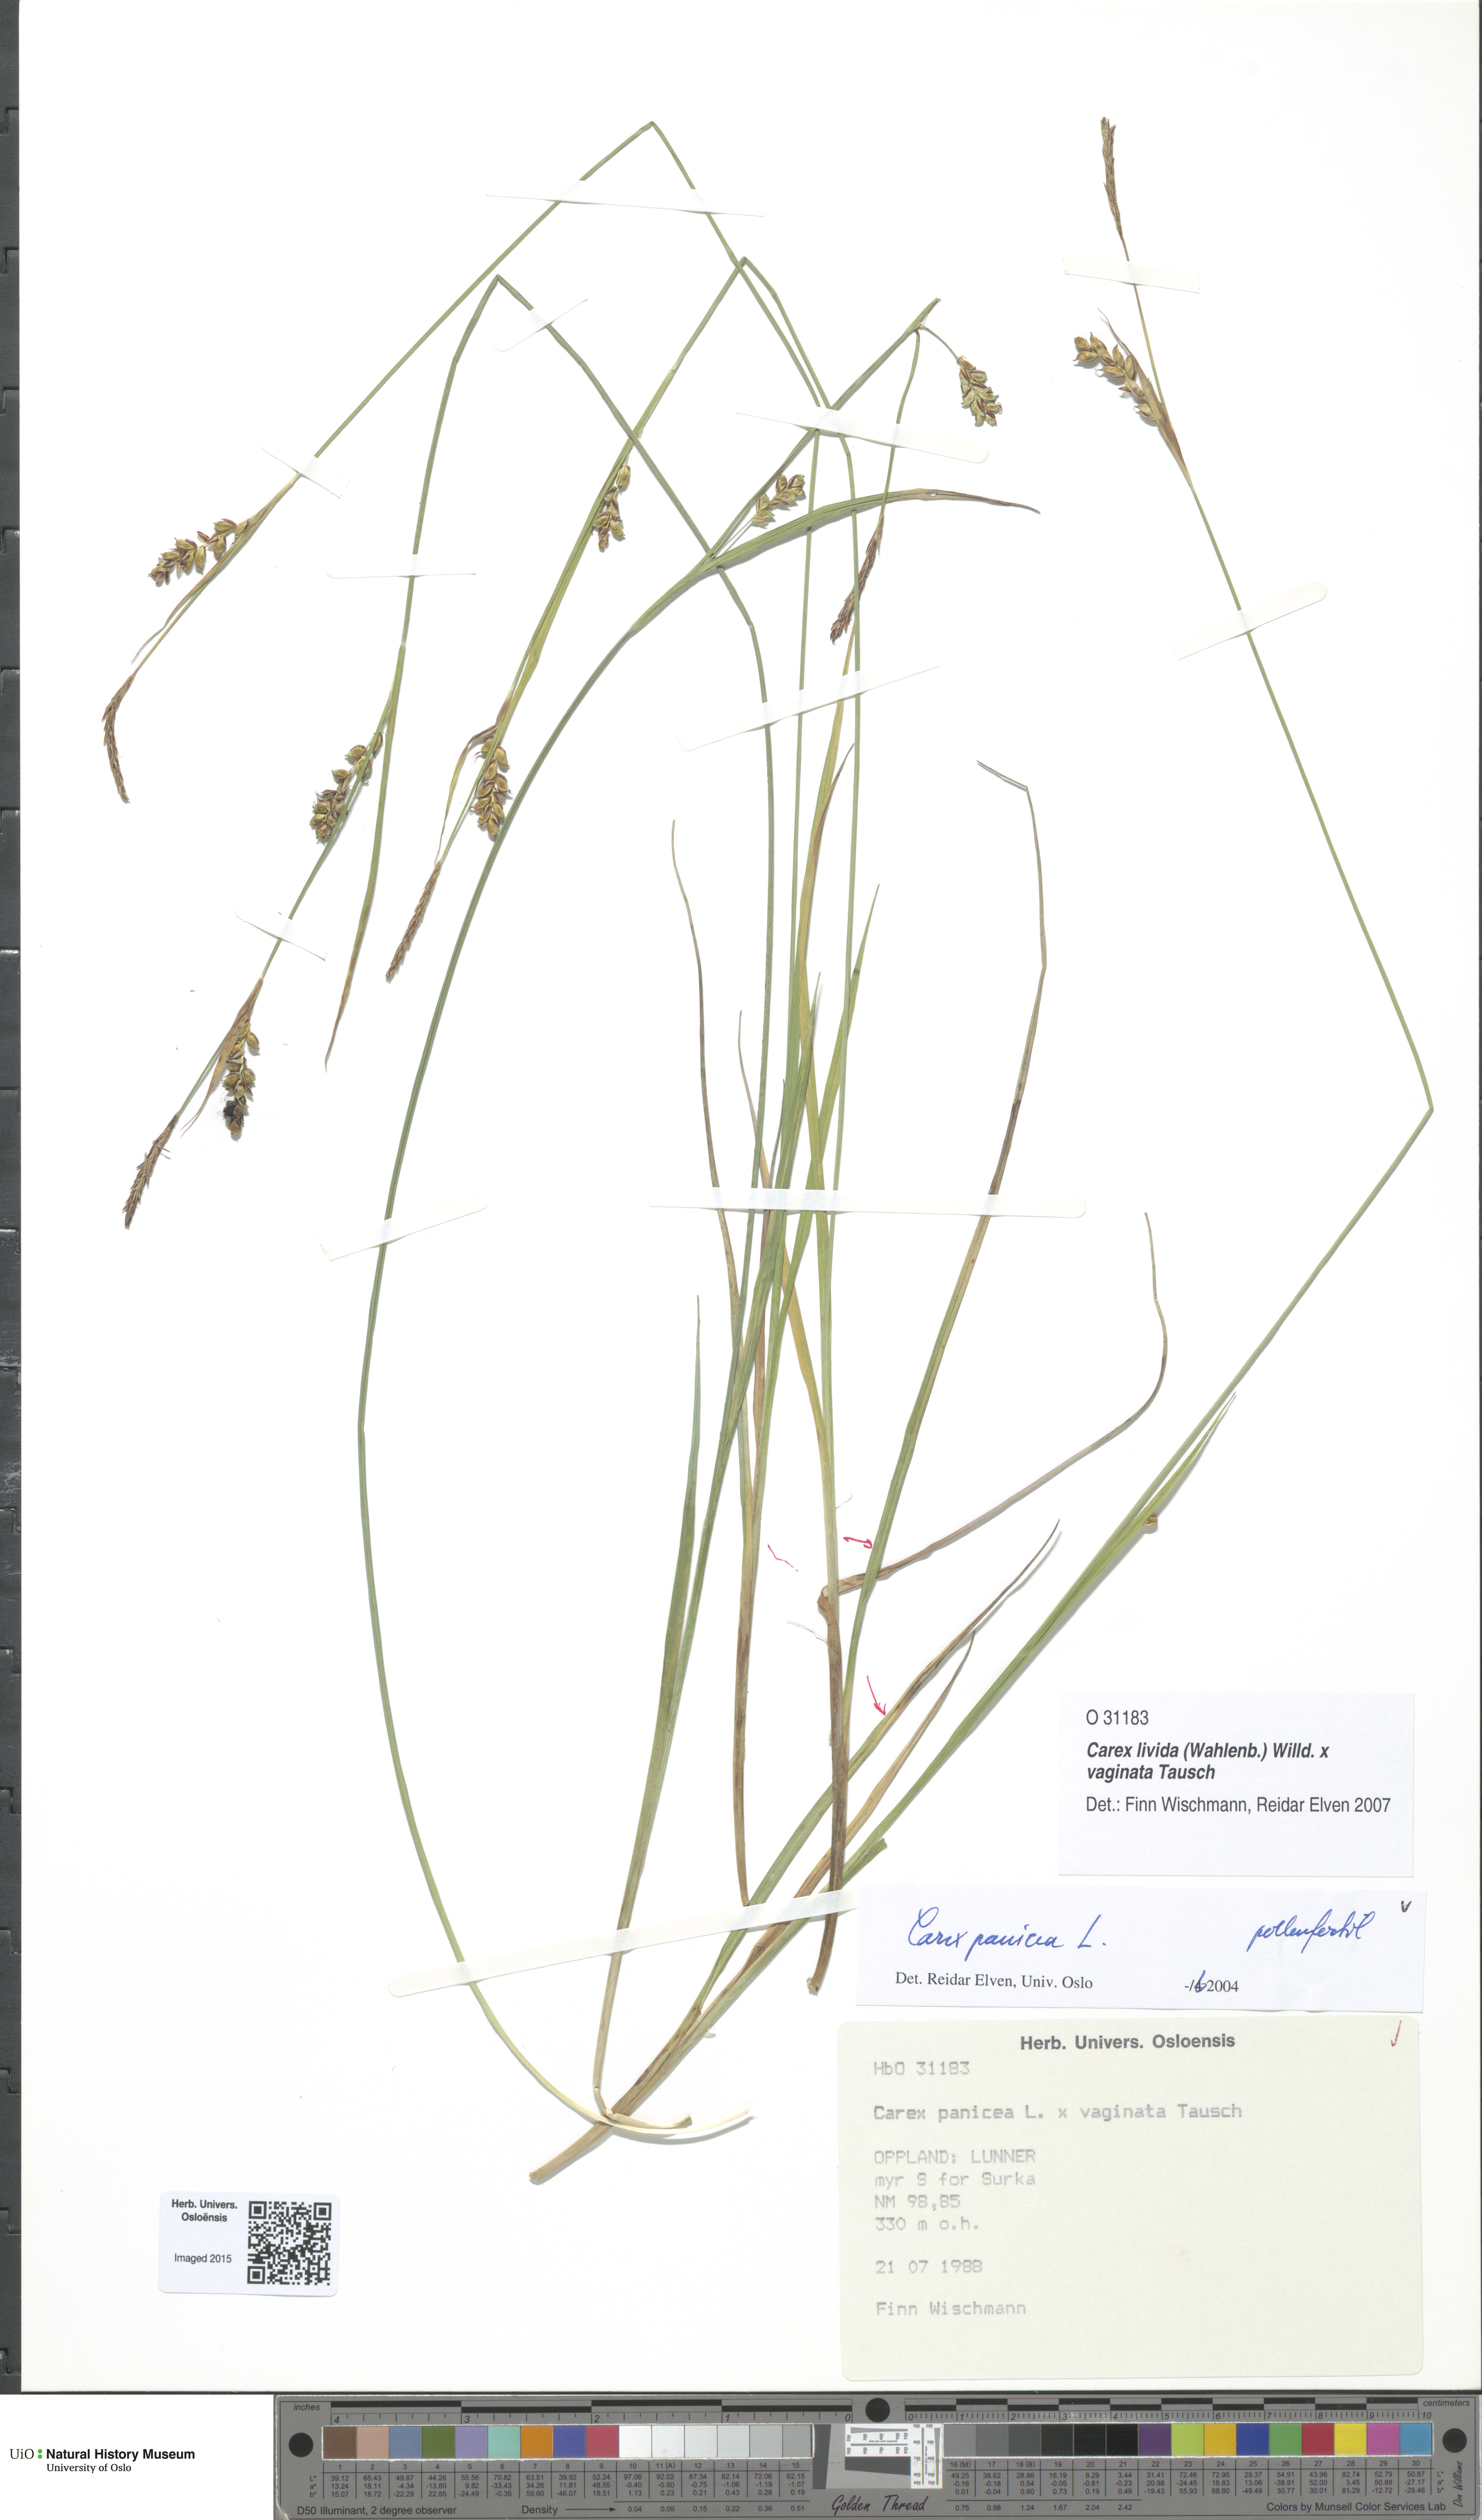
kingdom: Plantae
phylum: Tracheophyta
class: Liliopsida
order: Poales
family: Cyperaceae
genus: Carex
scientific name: Carex
